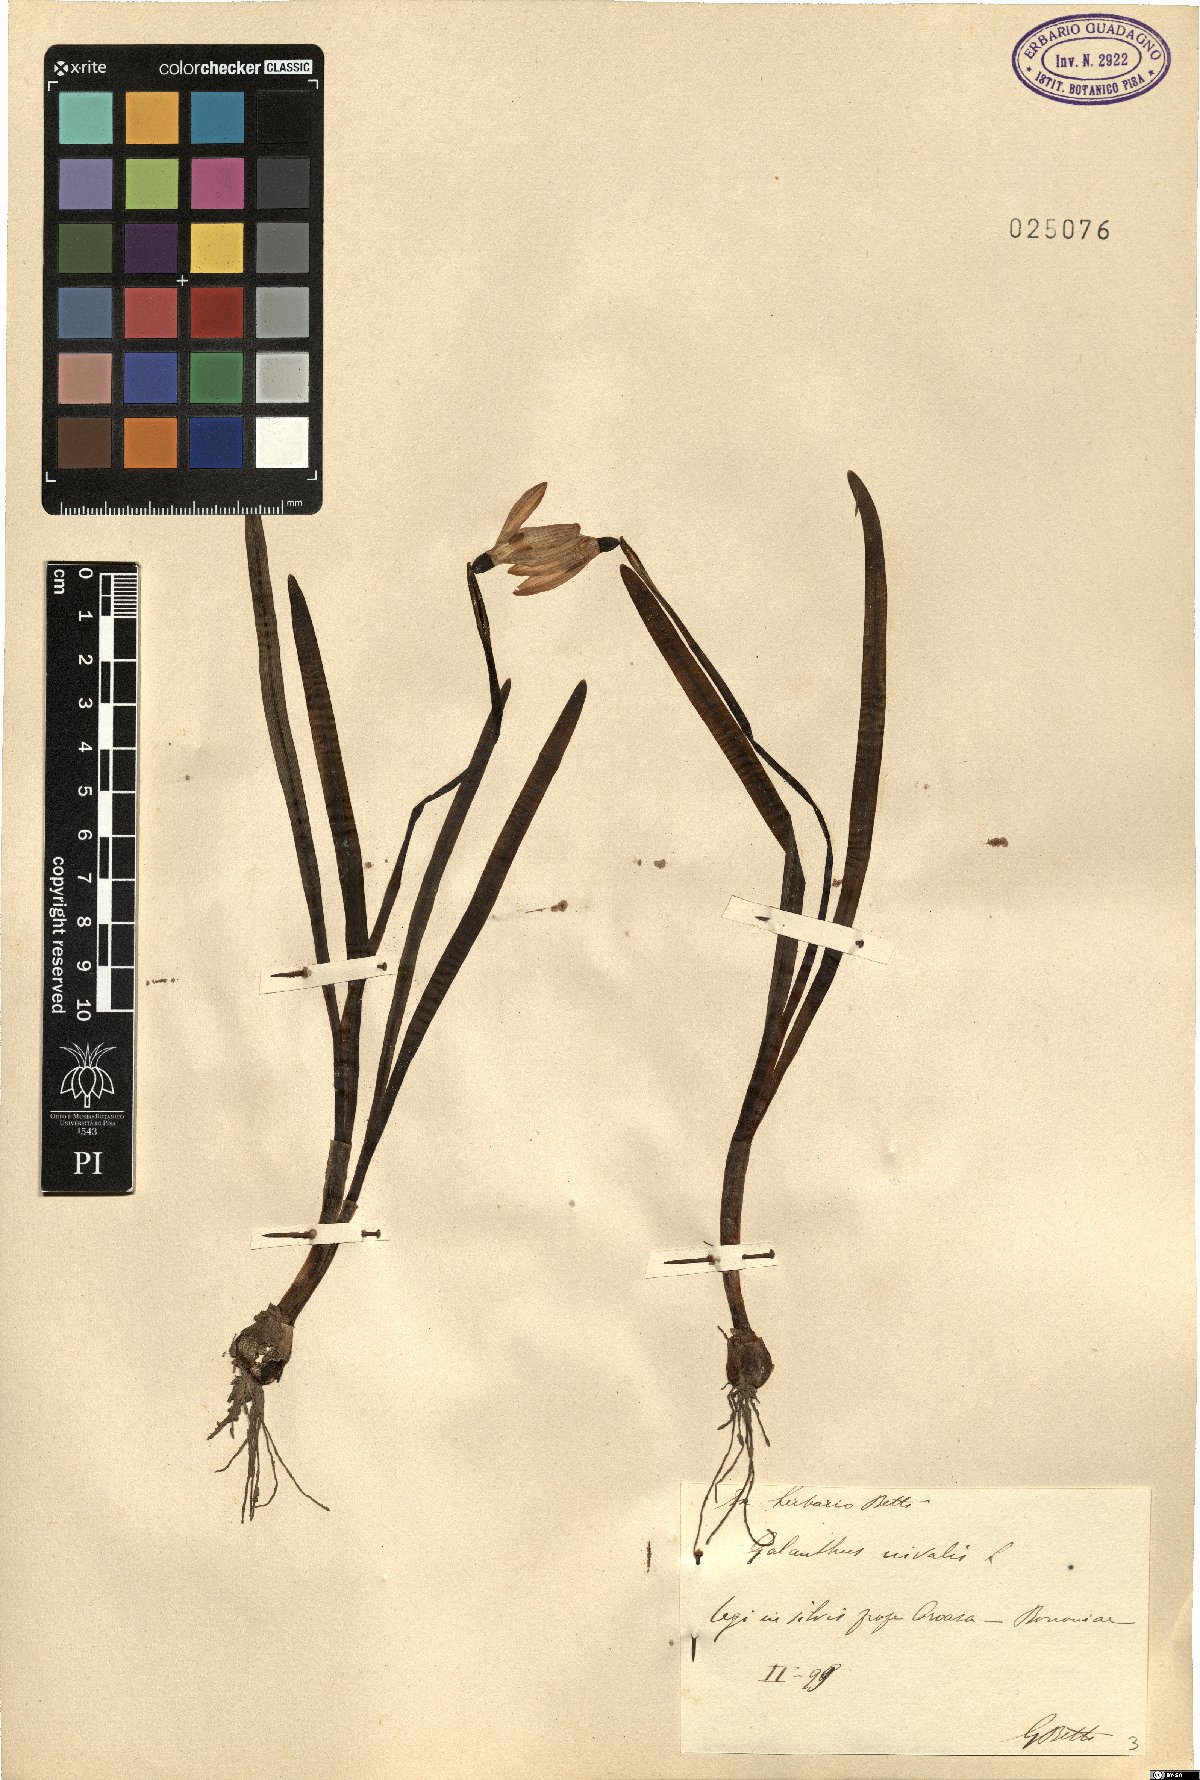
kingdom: Plantae
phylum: Tracheophyta
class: Liliopsida
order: Asparagales
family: Amaryllidaceae
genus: Galanthus
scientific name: Galanthus nivalis
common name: Snowdrop
